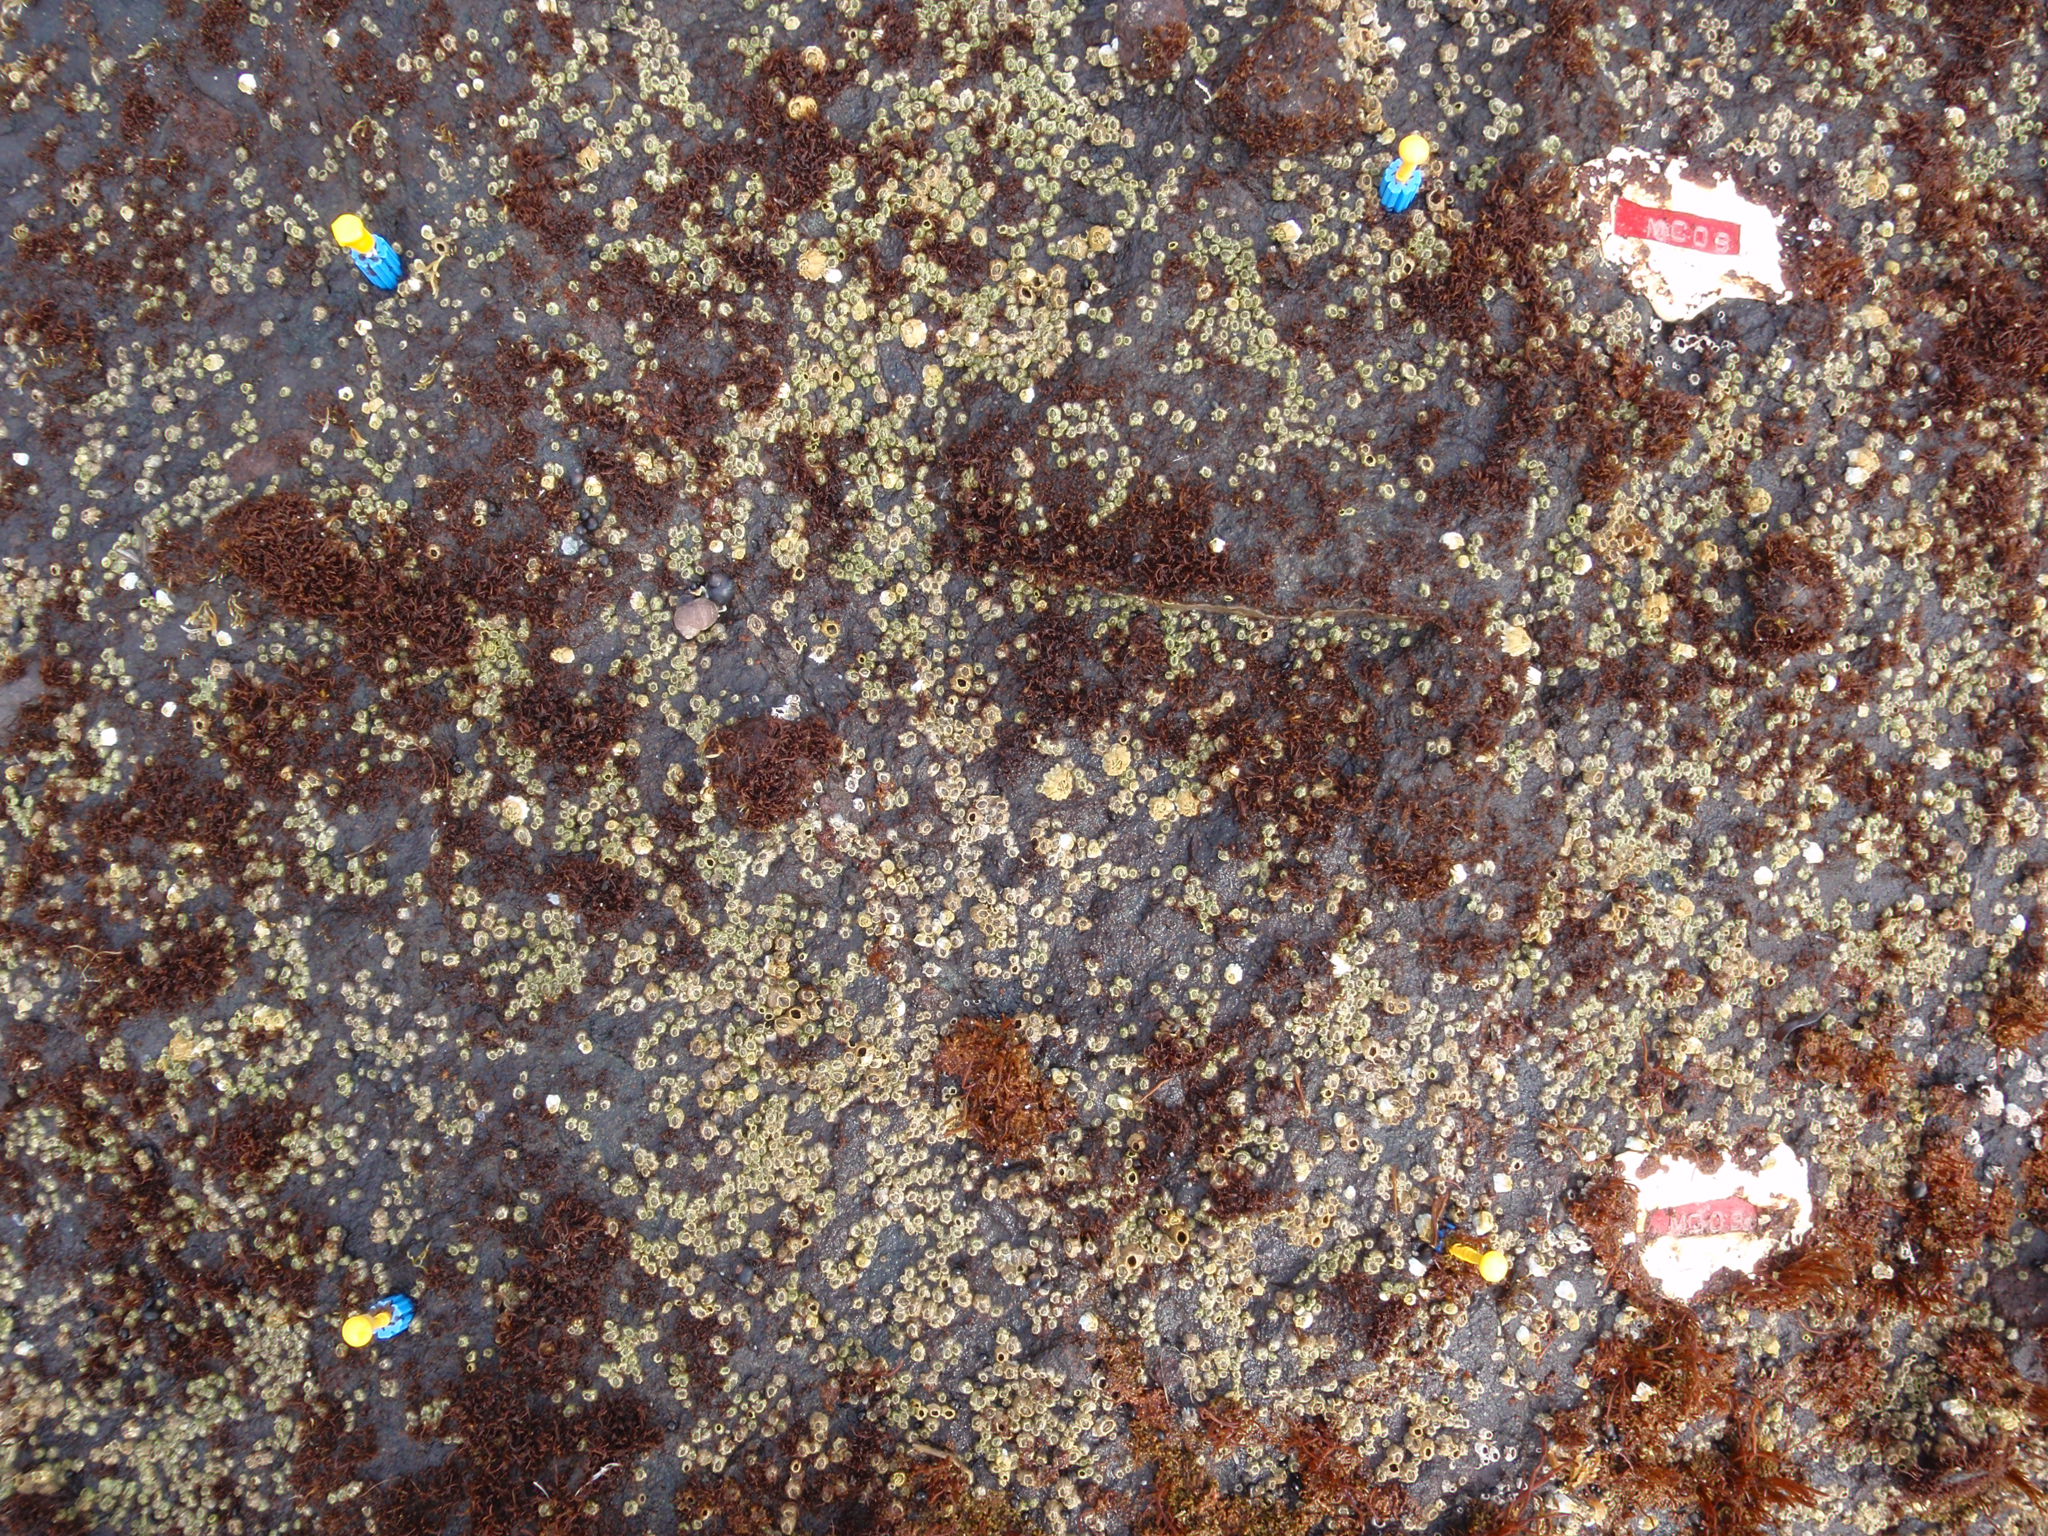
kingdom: Chromista
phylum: Ochrophyta
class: Phaeophyceae
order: Scytosiphonales
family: Scytosiphonaceae
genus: Analipus
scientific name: Analipus japonicus
